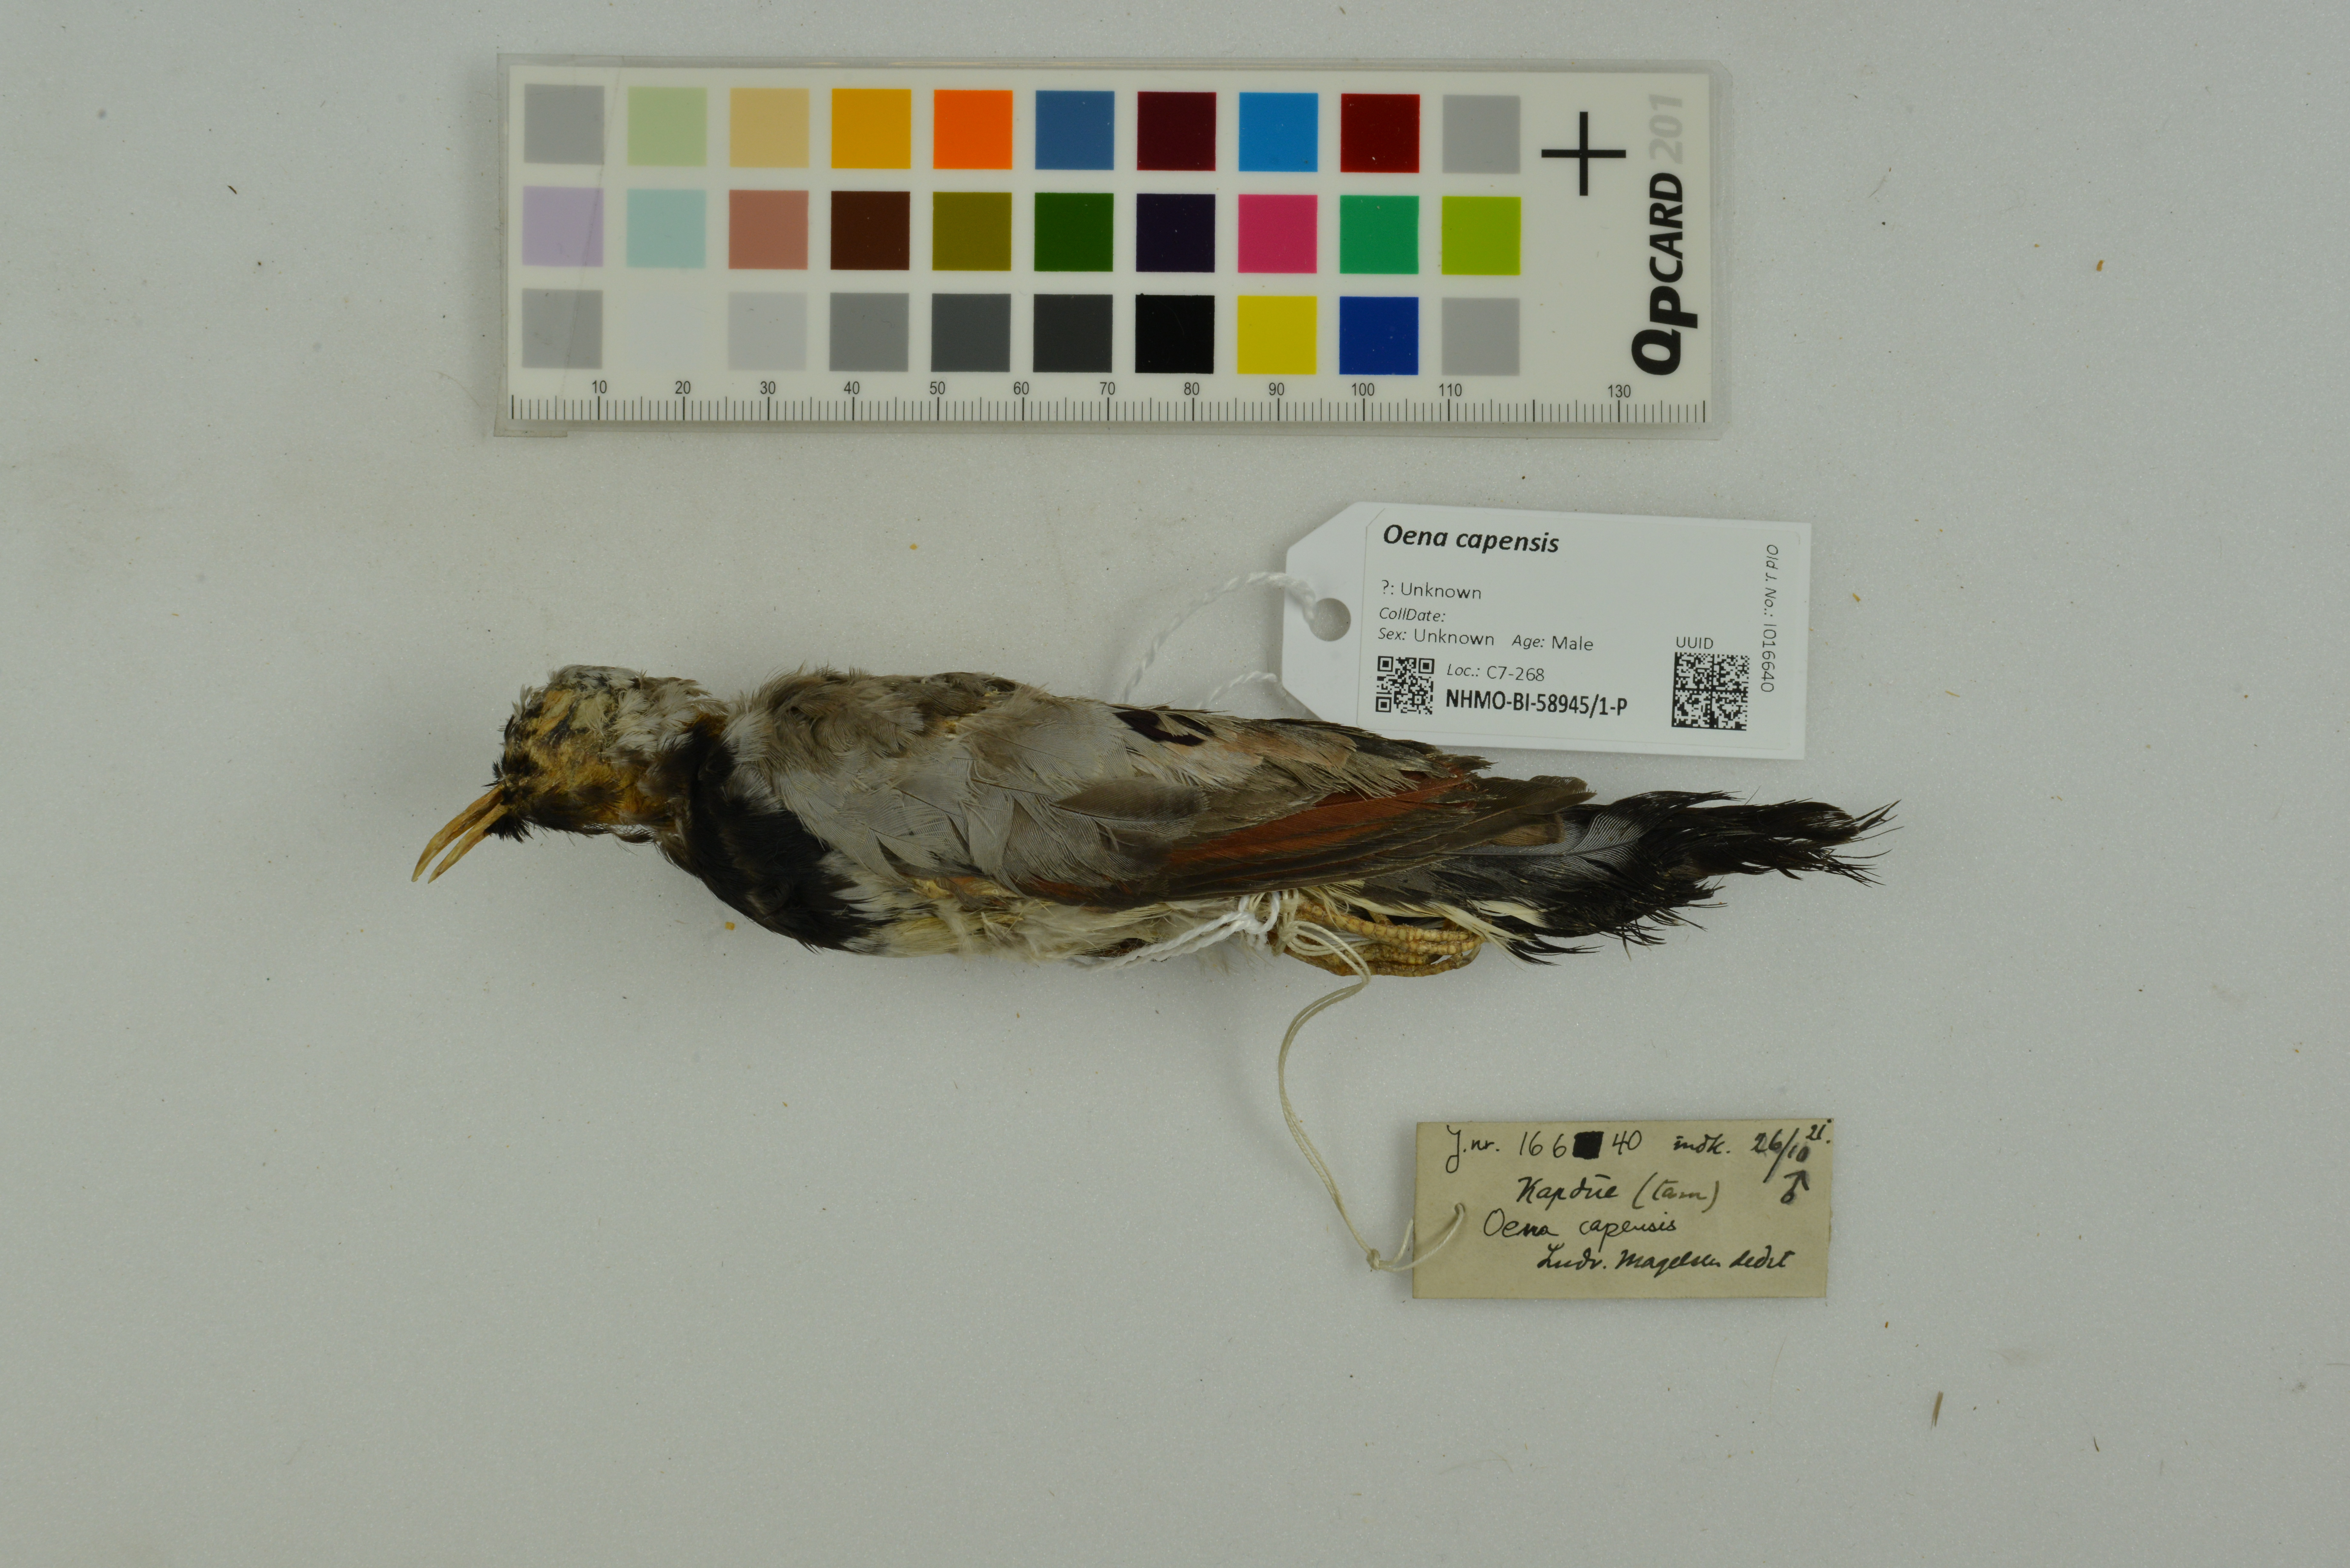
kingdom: Animalia
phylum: Chordata
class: Aves
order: Columbiformes
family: Columbidae
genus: Oena
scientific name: Oena capensis
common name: Namaqua dove
